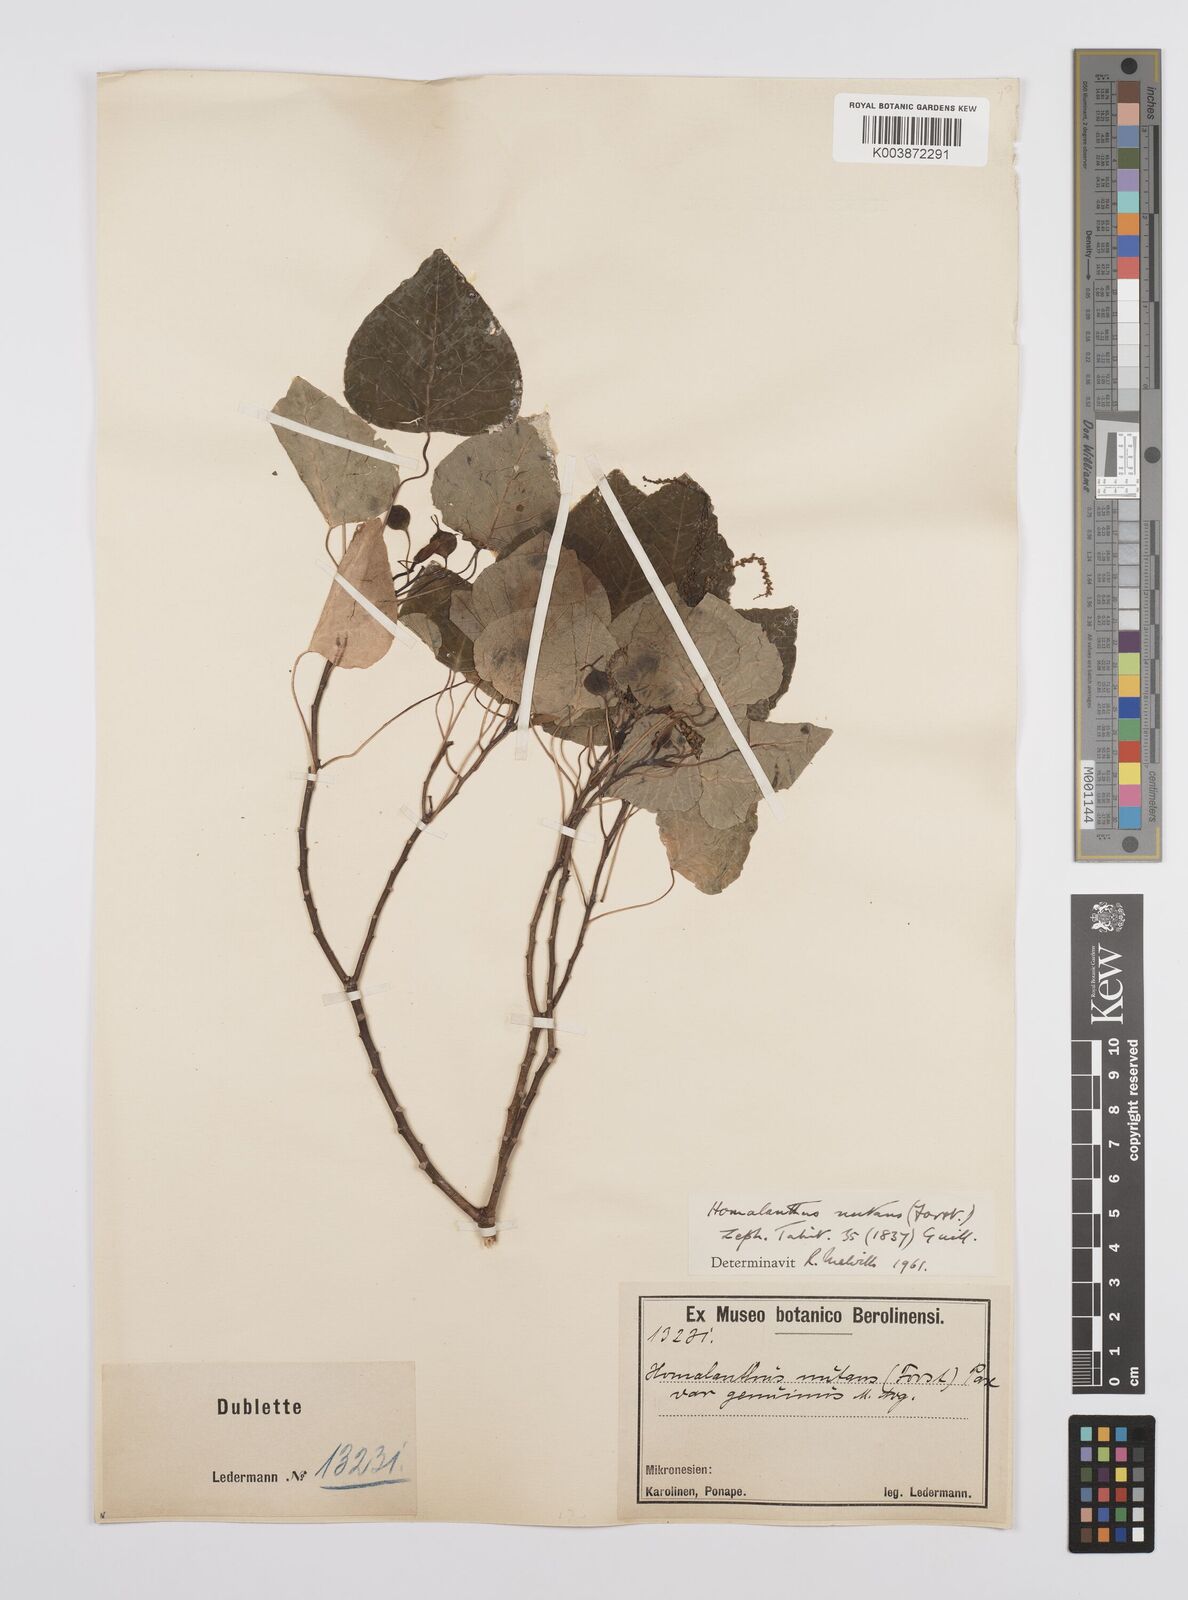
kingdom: Plantae
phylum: Tracheophyta
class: Magnoliopsida
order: Malpighiales
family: Euphorbiaceae
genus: Homalanthus
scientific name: Homalanthus nutans
